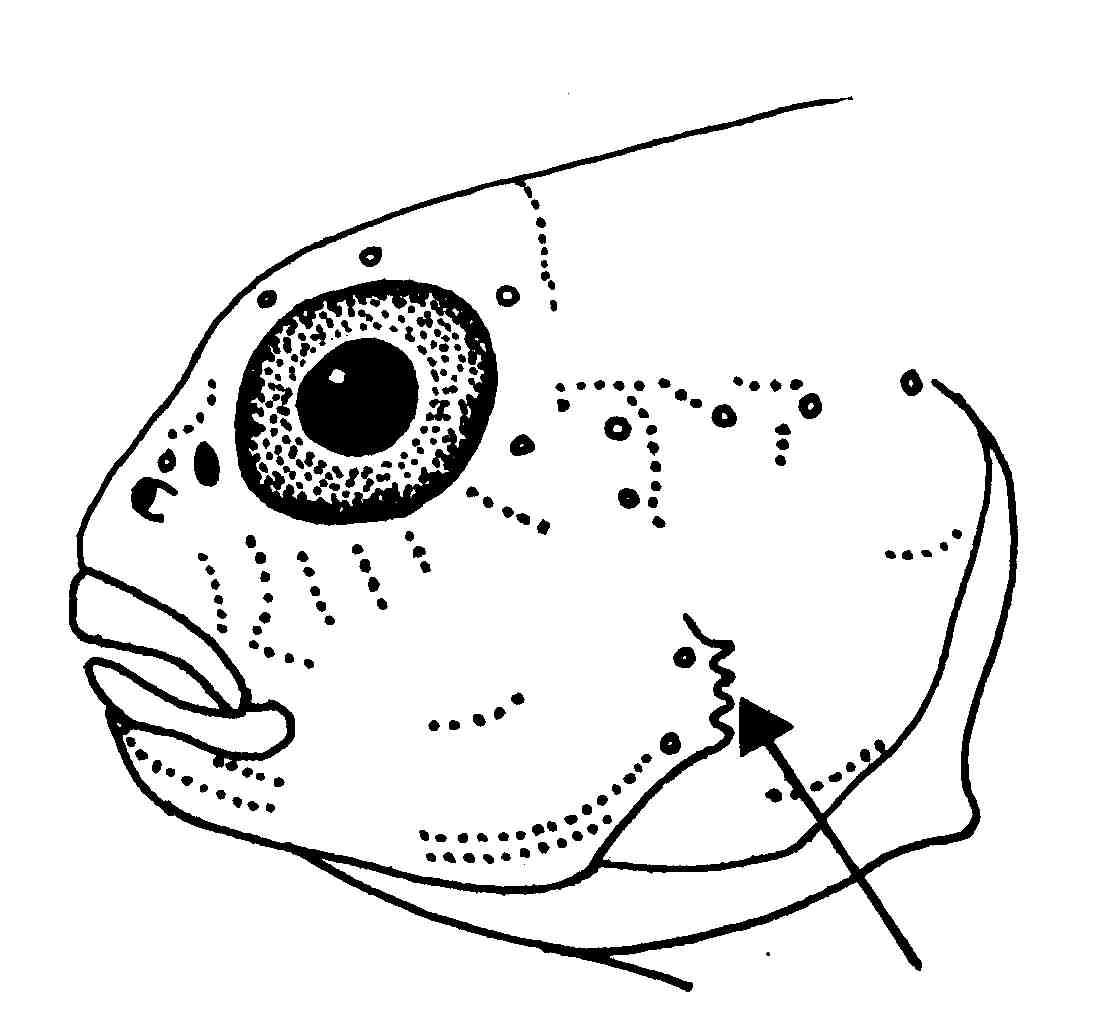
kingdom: Animalia
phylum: Chordata
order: Perciformes
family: Gobiidae
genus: Asterropteryx
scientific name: Asterropteryx semipunctata
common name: Starry goby
